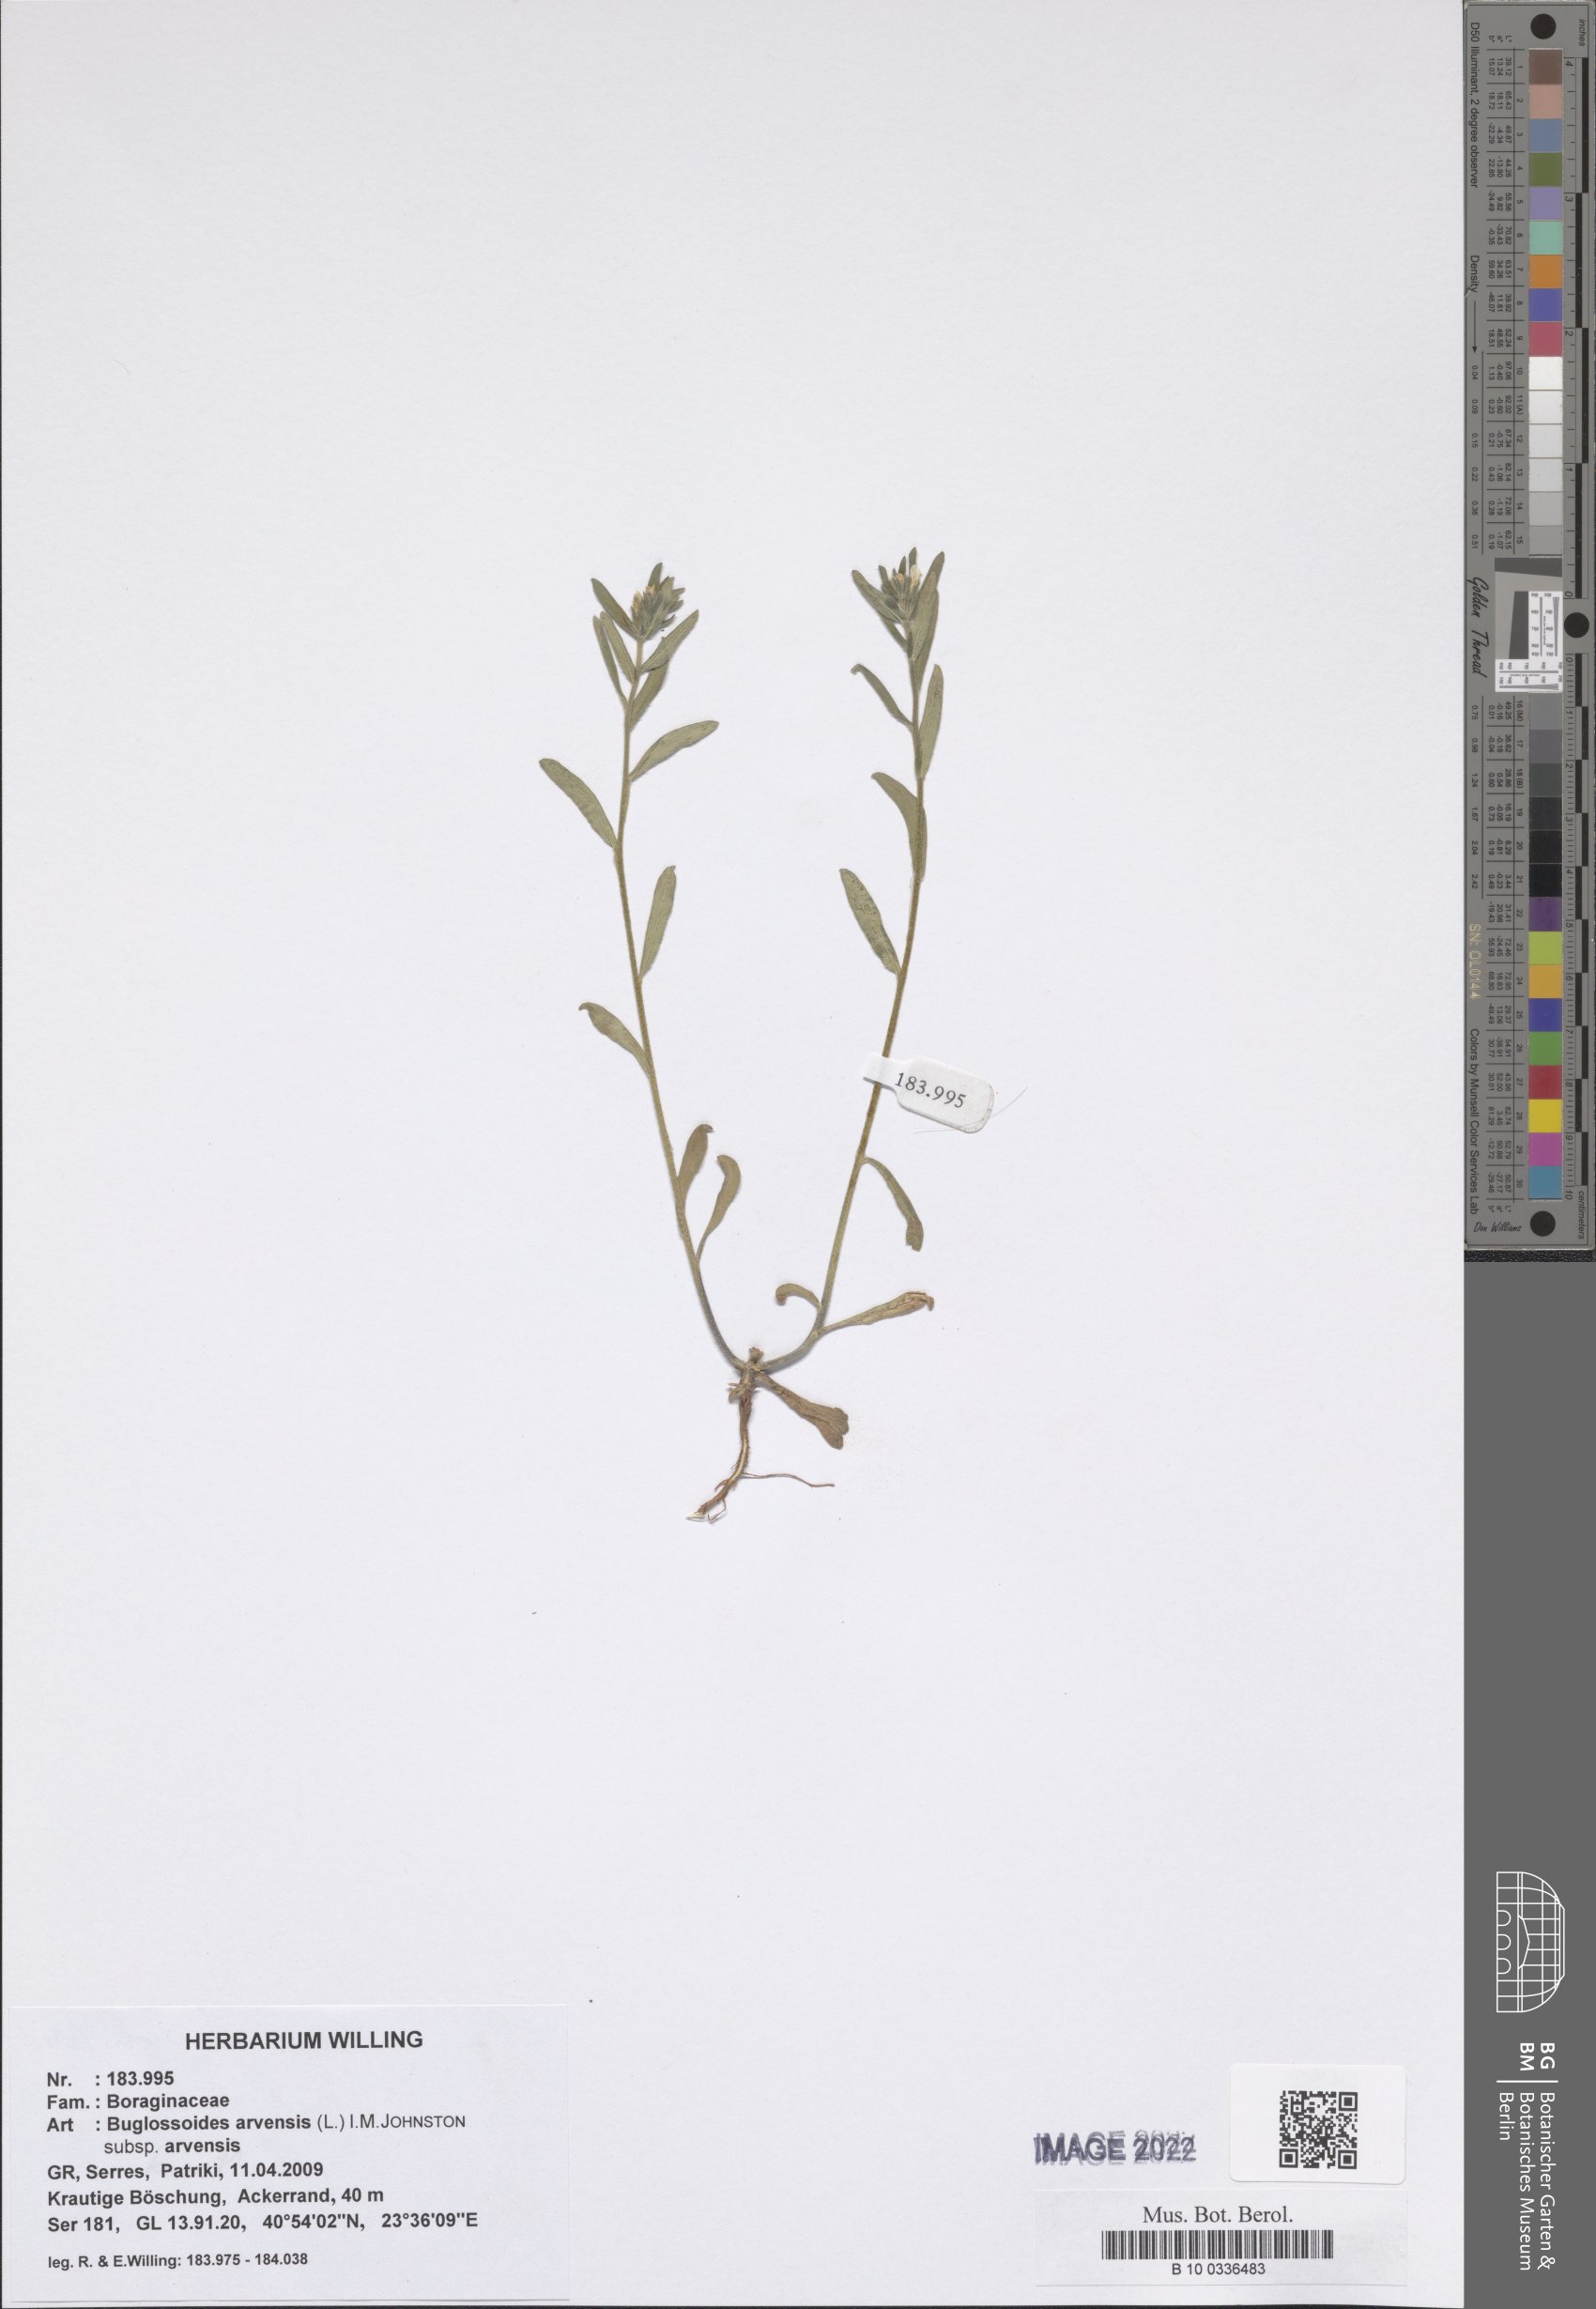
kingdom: Plantae
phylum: Tracheophyta
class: Magnoliopsida
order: Boraginales
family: Boraginaceae
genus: Buglossoides
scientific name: Buglossoides arvensis
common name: Corn gromwell
